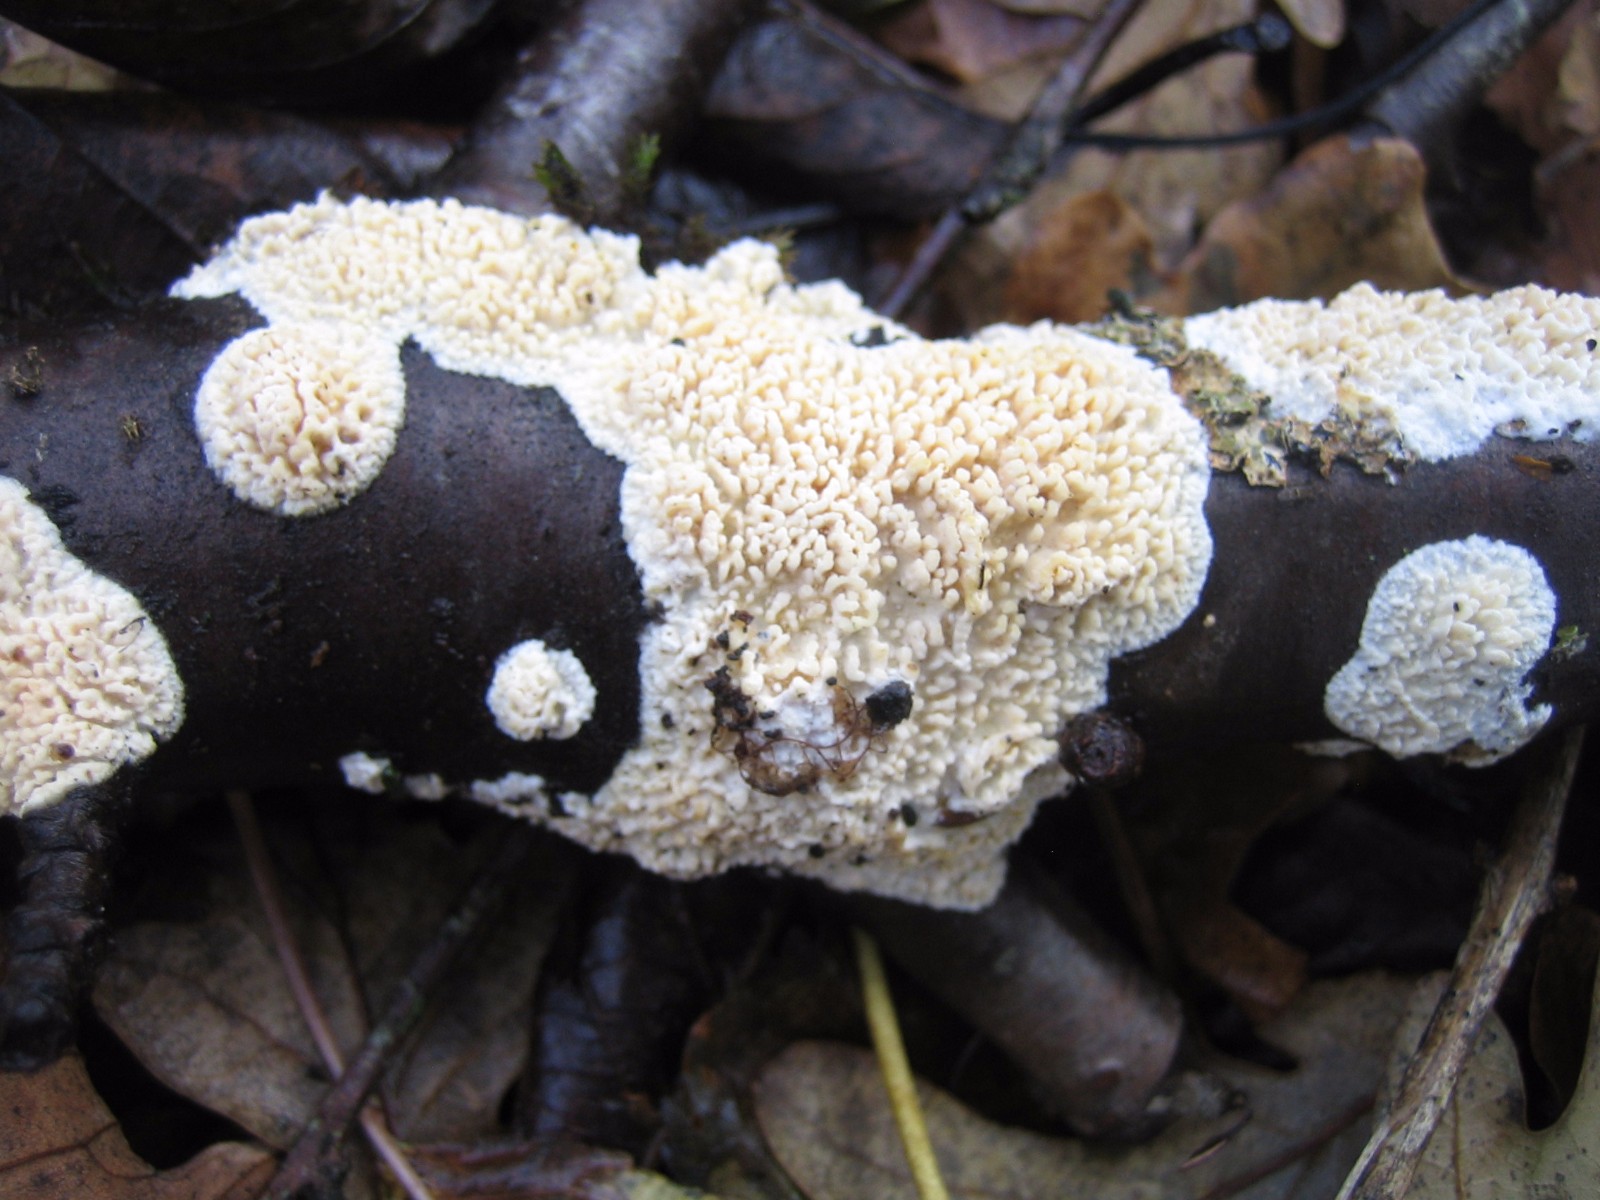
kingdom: Fungi
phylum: Basidiomycota
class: Agaricomycetes
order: Hymenochaetales
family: Schizoporaceae
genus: Xylodon
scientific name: Xylodon radula
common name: grovtandet kalkskind
